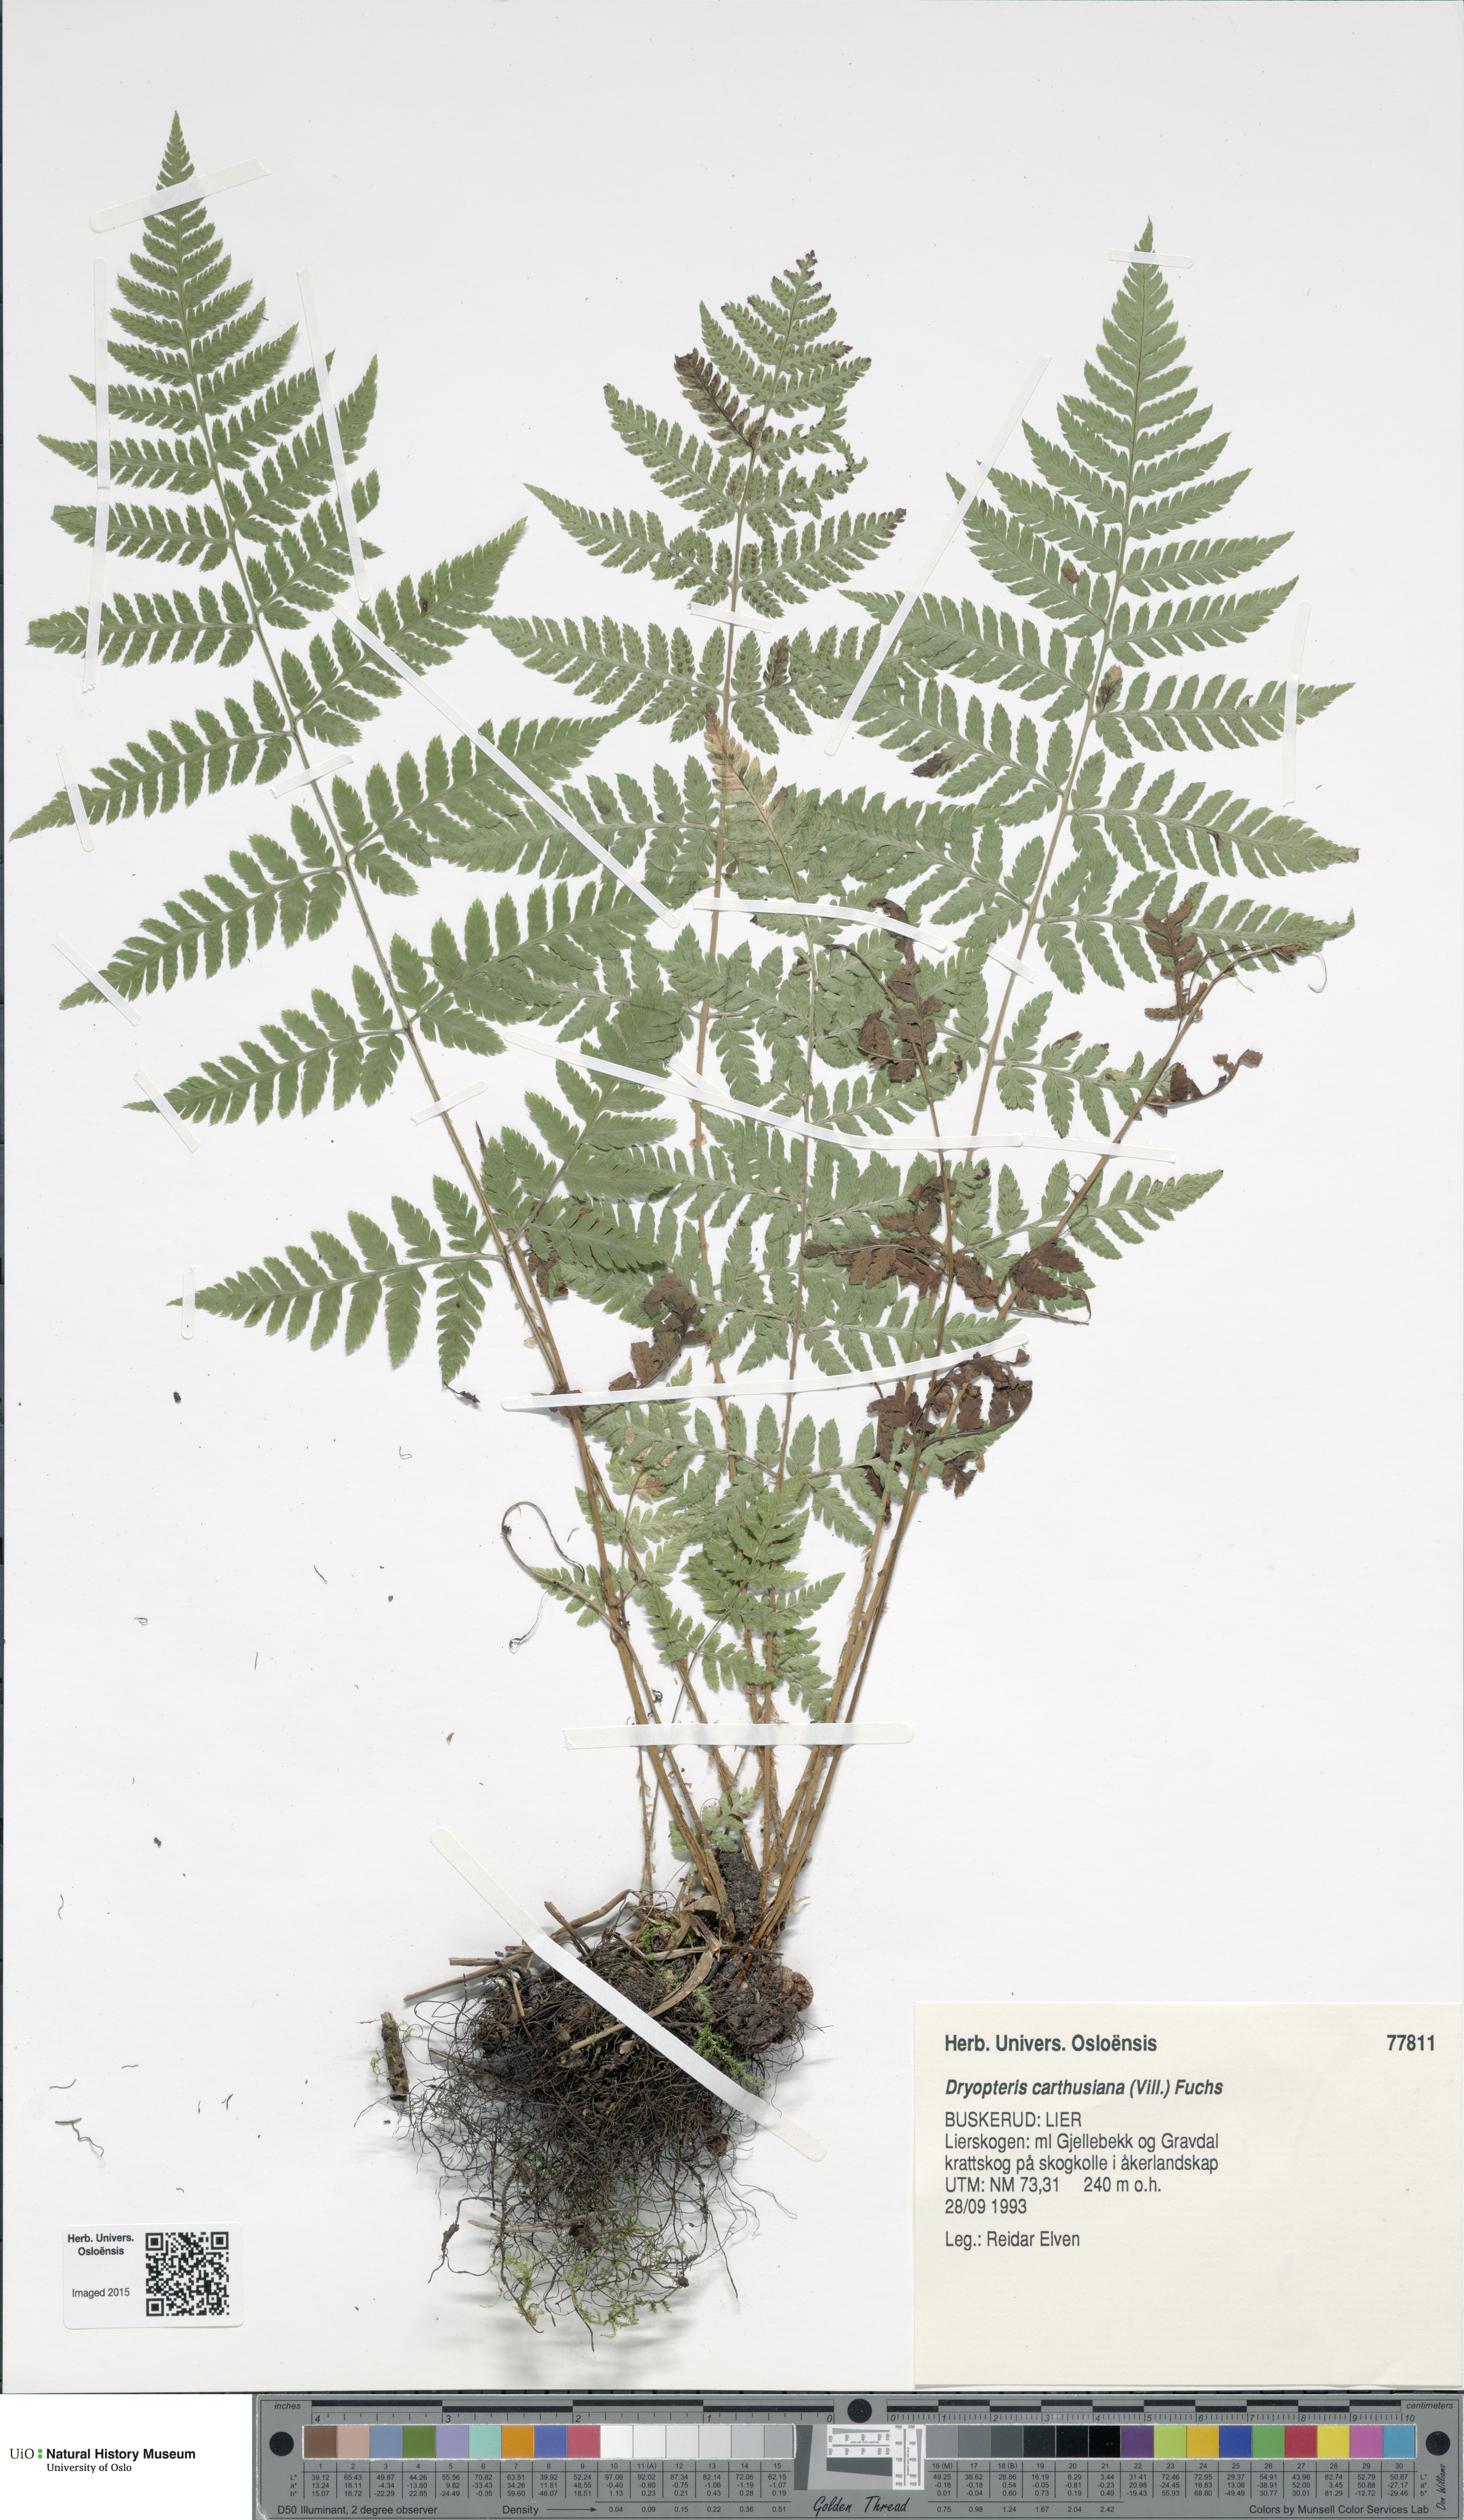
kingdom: Plantae
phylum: Tracheophyta
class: Polypodiopsida
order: Polypodiales
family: Dryopteridaceae
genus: Dryopteris
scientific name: Dryopteris carthusiana
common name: Narrow buckler-fern
